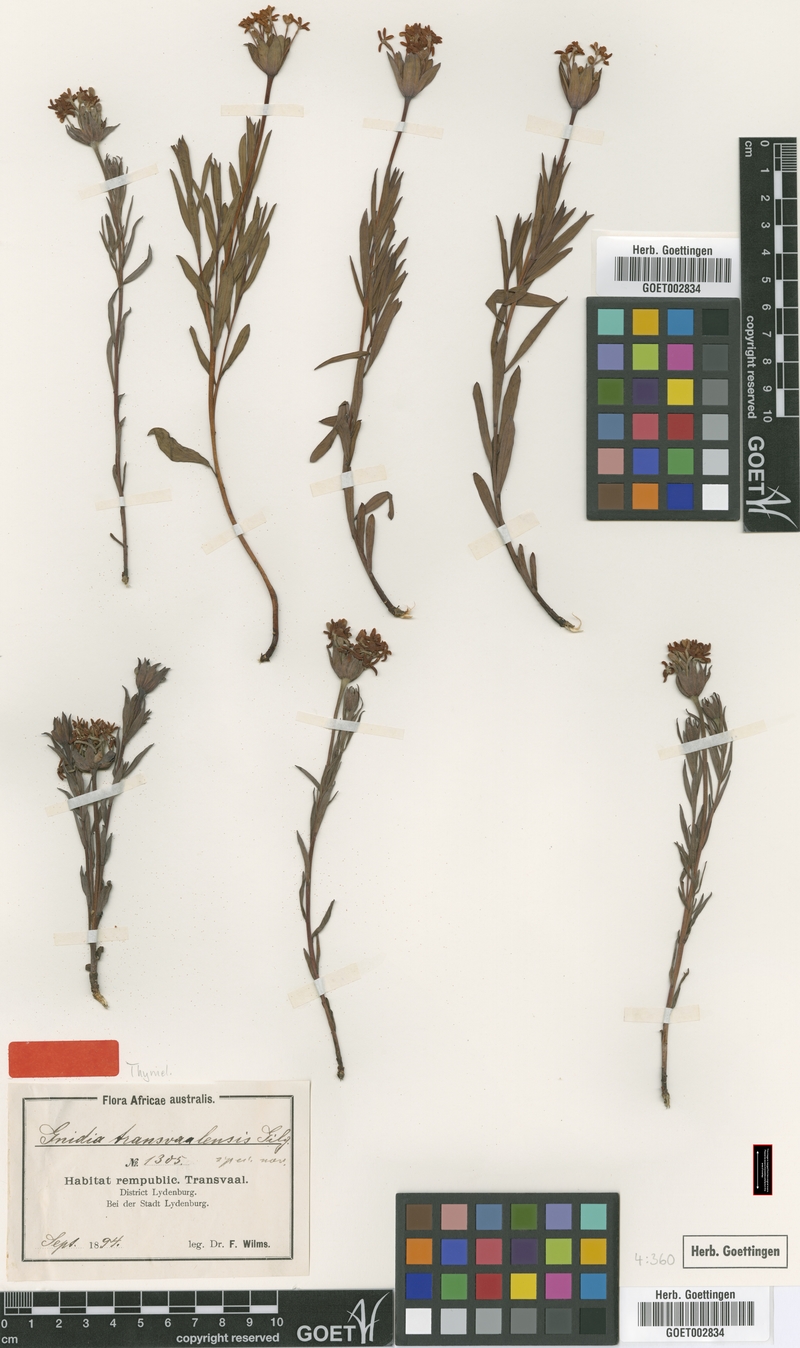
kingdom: Plantae
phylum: Tracheophyta
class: Magnoliopsida
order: Malvales
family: Thymelaeaceae
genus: Gnidia
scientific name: Gnidia capitata
